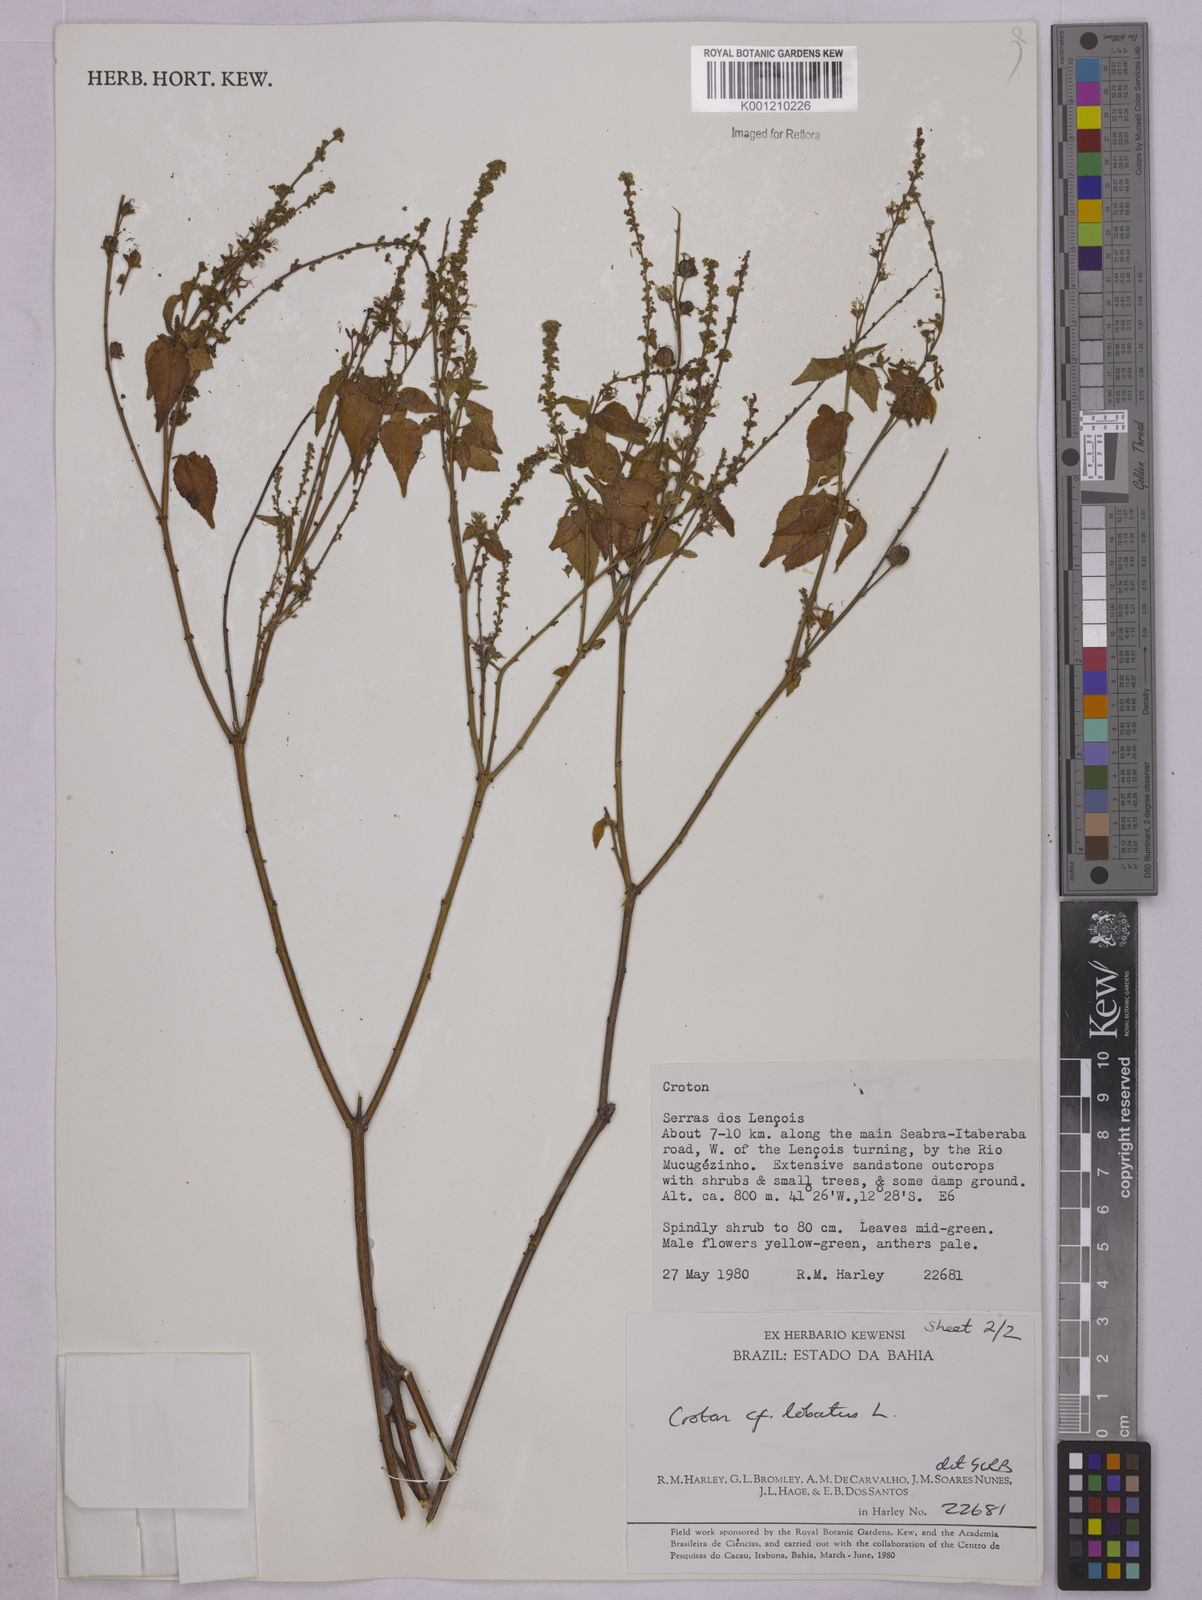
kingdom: Plantae
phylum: Tracheophyta
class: Magnoliopsida
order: Malpighiales
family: Euphorbiaceae
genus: Astraea
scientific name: Astraea lobata
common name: Lobed croton
